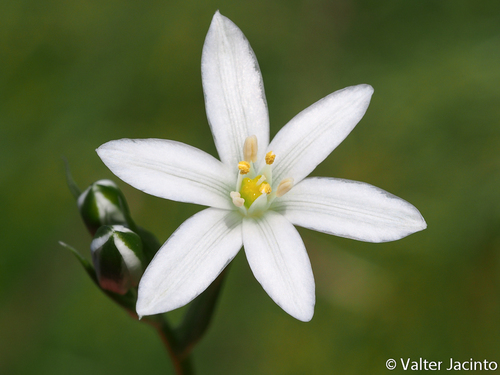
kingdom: Plantae
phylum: Tracheophyta
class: Liliopsida
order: Asparagales
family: Asparagaceae
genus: Ornithogalum
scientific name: Ornithogalum baeticum
